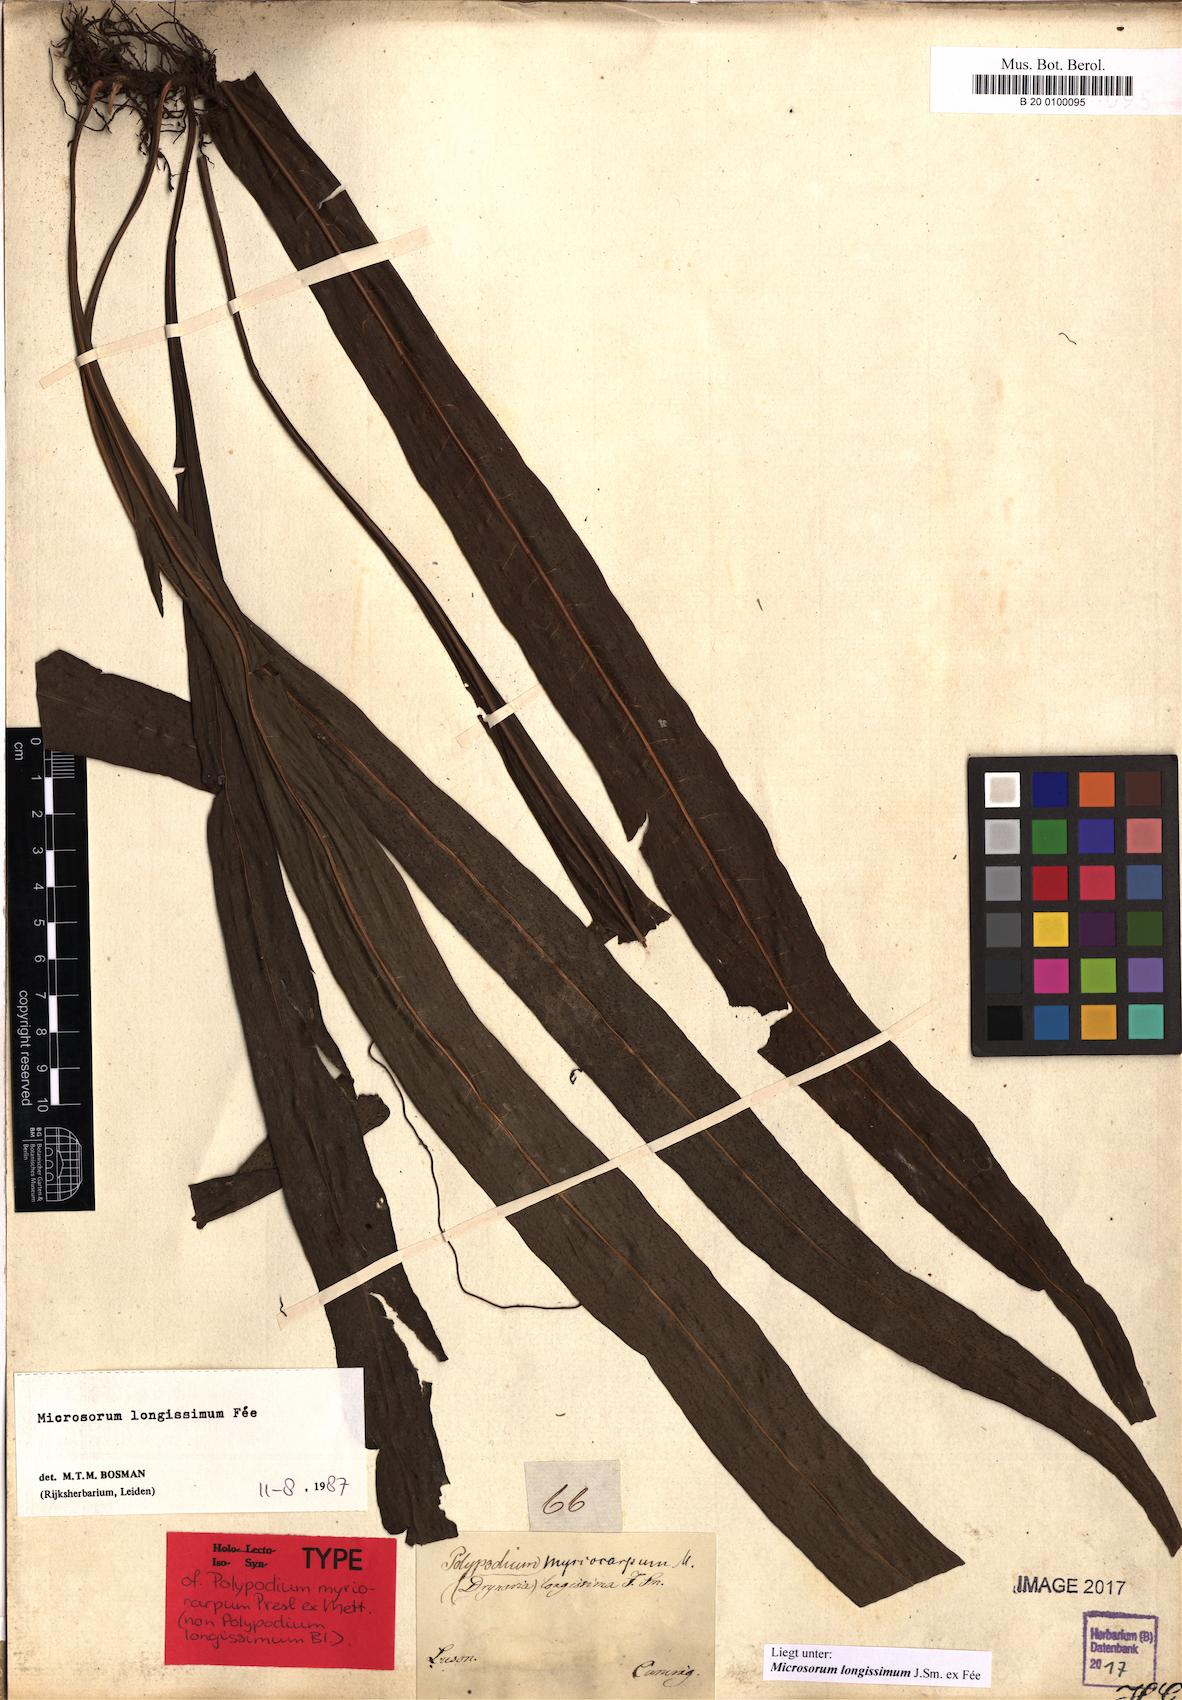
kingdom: Plantae
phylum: Tracheophyta
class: Polypodiopsida
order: Polypodiales
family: Polypodiaceae
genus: Microsorum
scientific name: Microsorum longissimum
